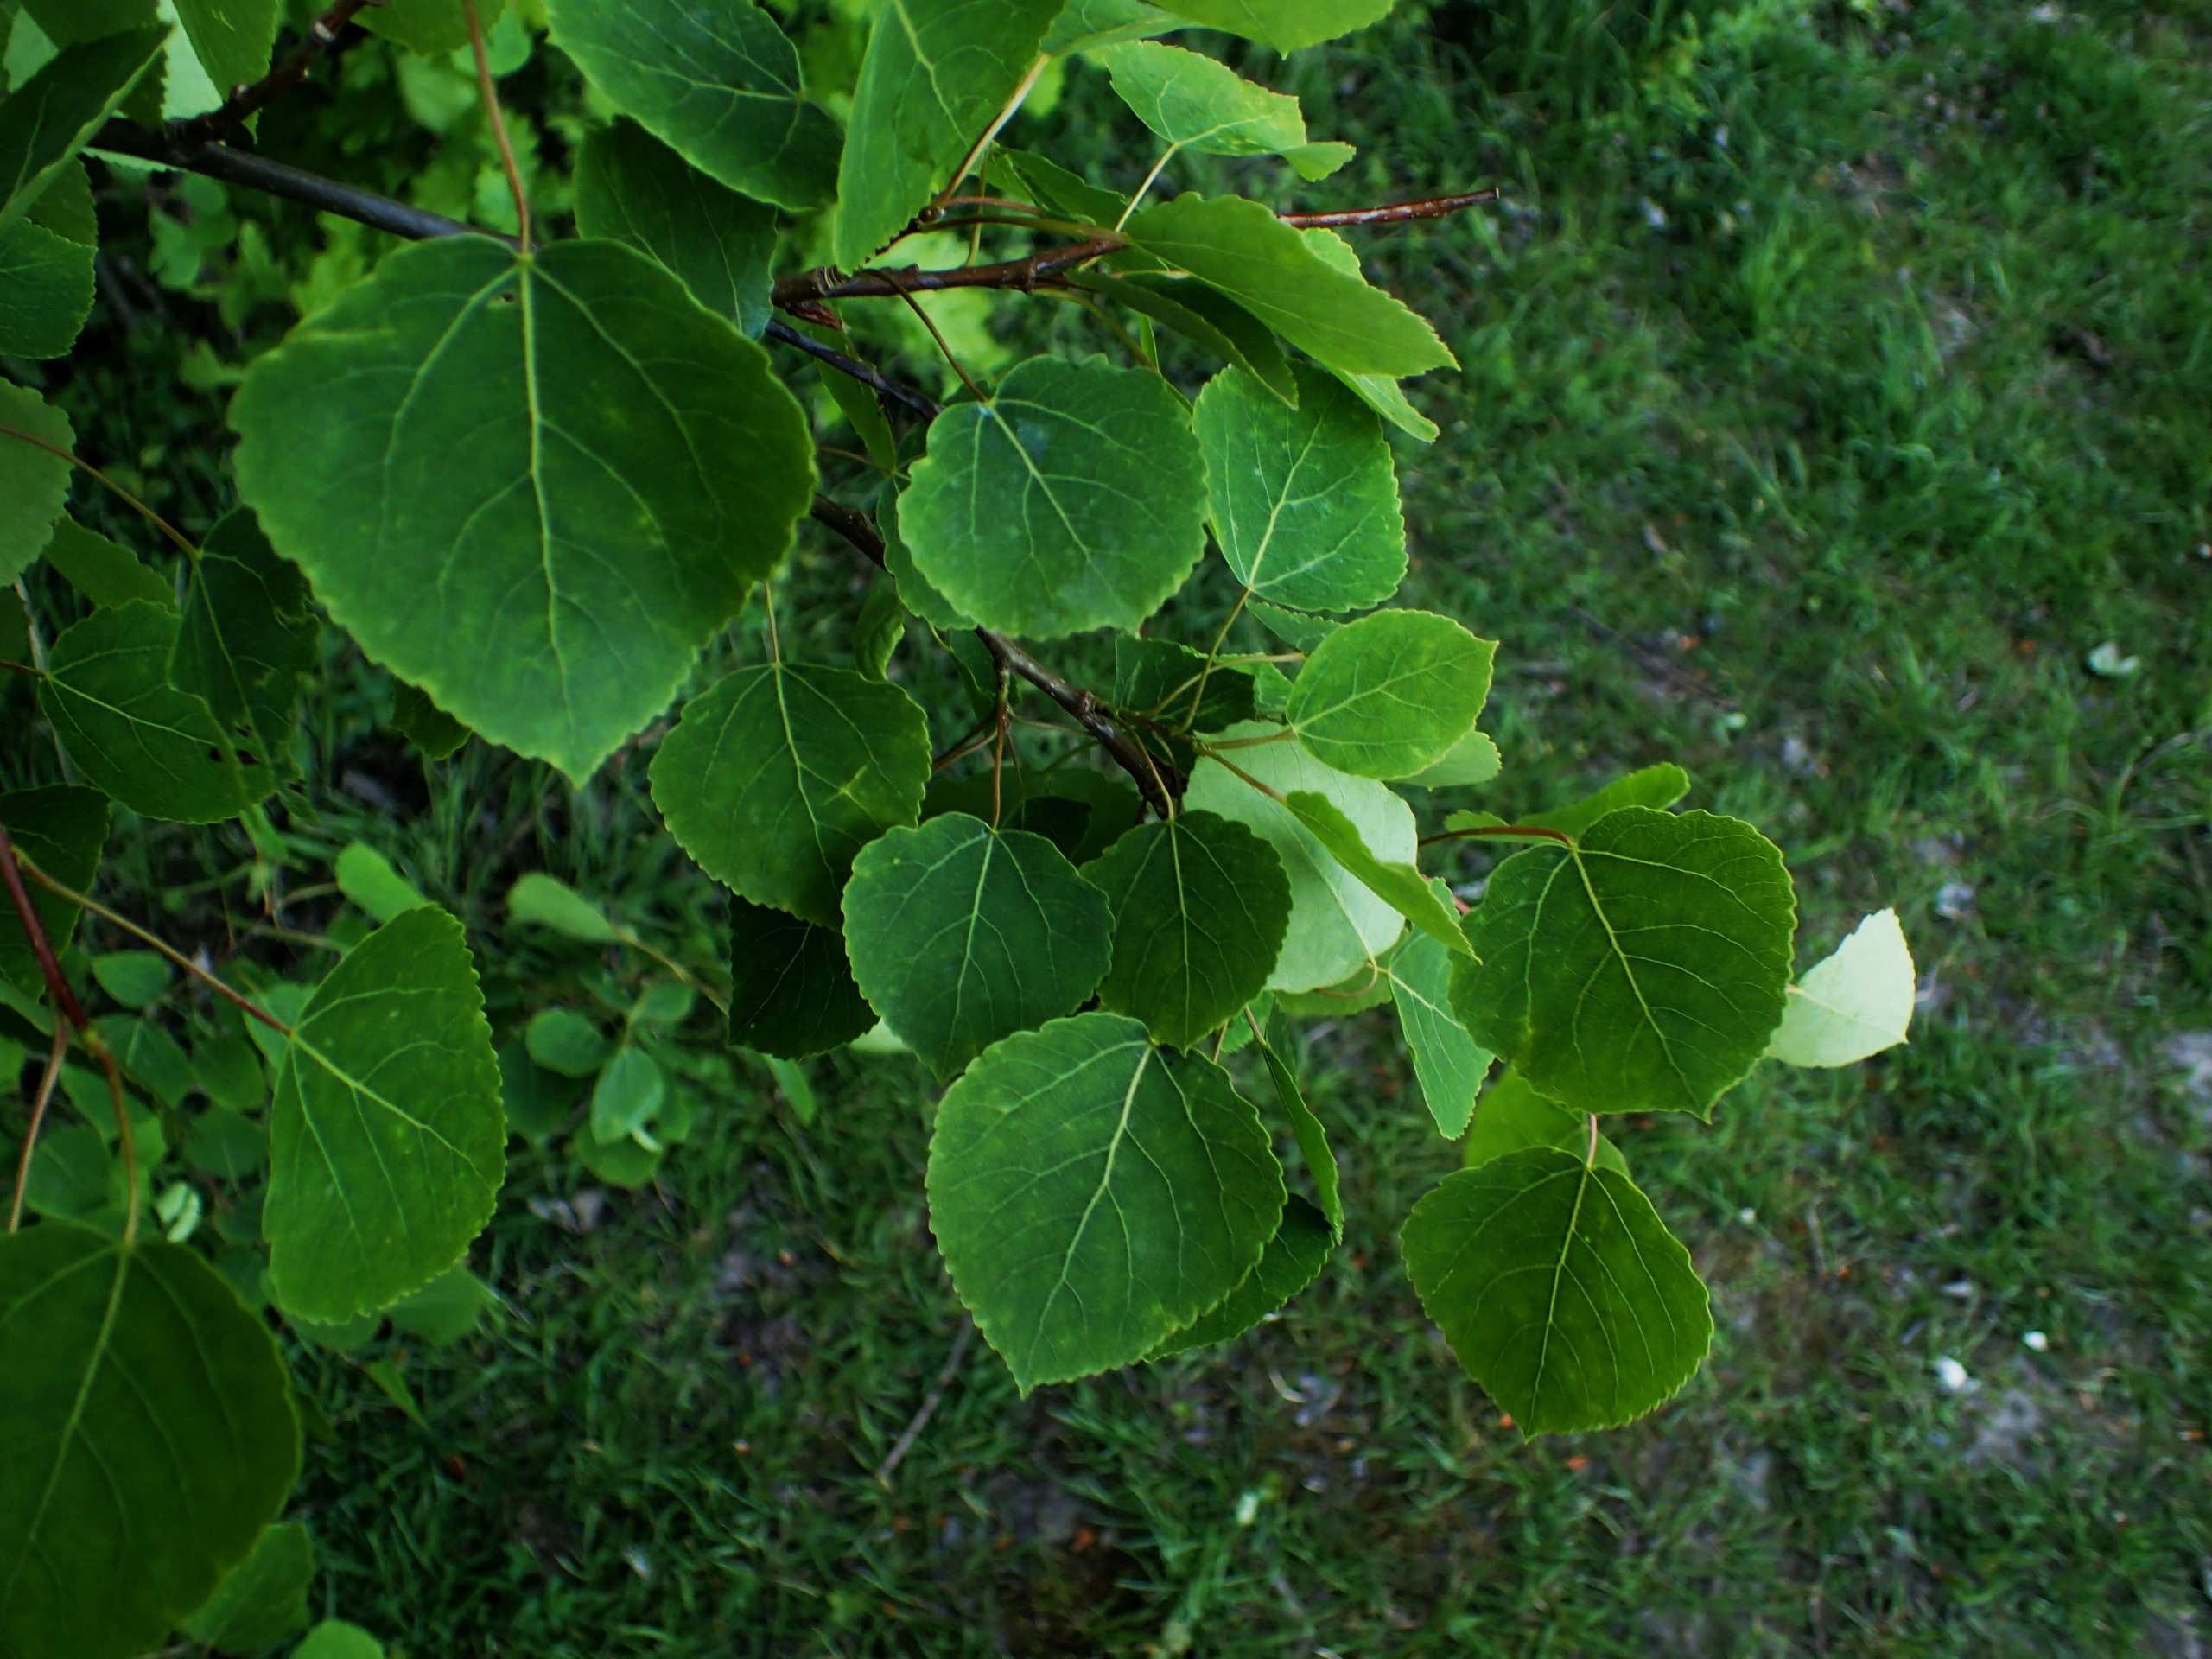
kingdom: Plantae
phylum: Tracheophyta
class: Magnoliopsida
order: Malpighiales
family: Salicaceae
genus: Populus
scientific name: Populus tremula
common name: Bævreasp
